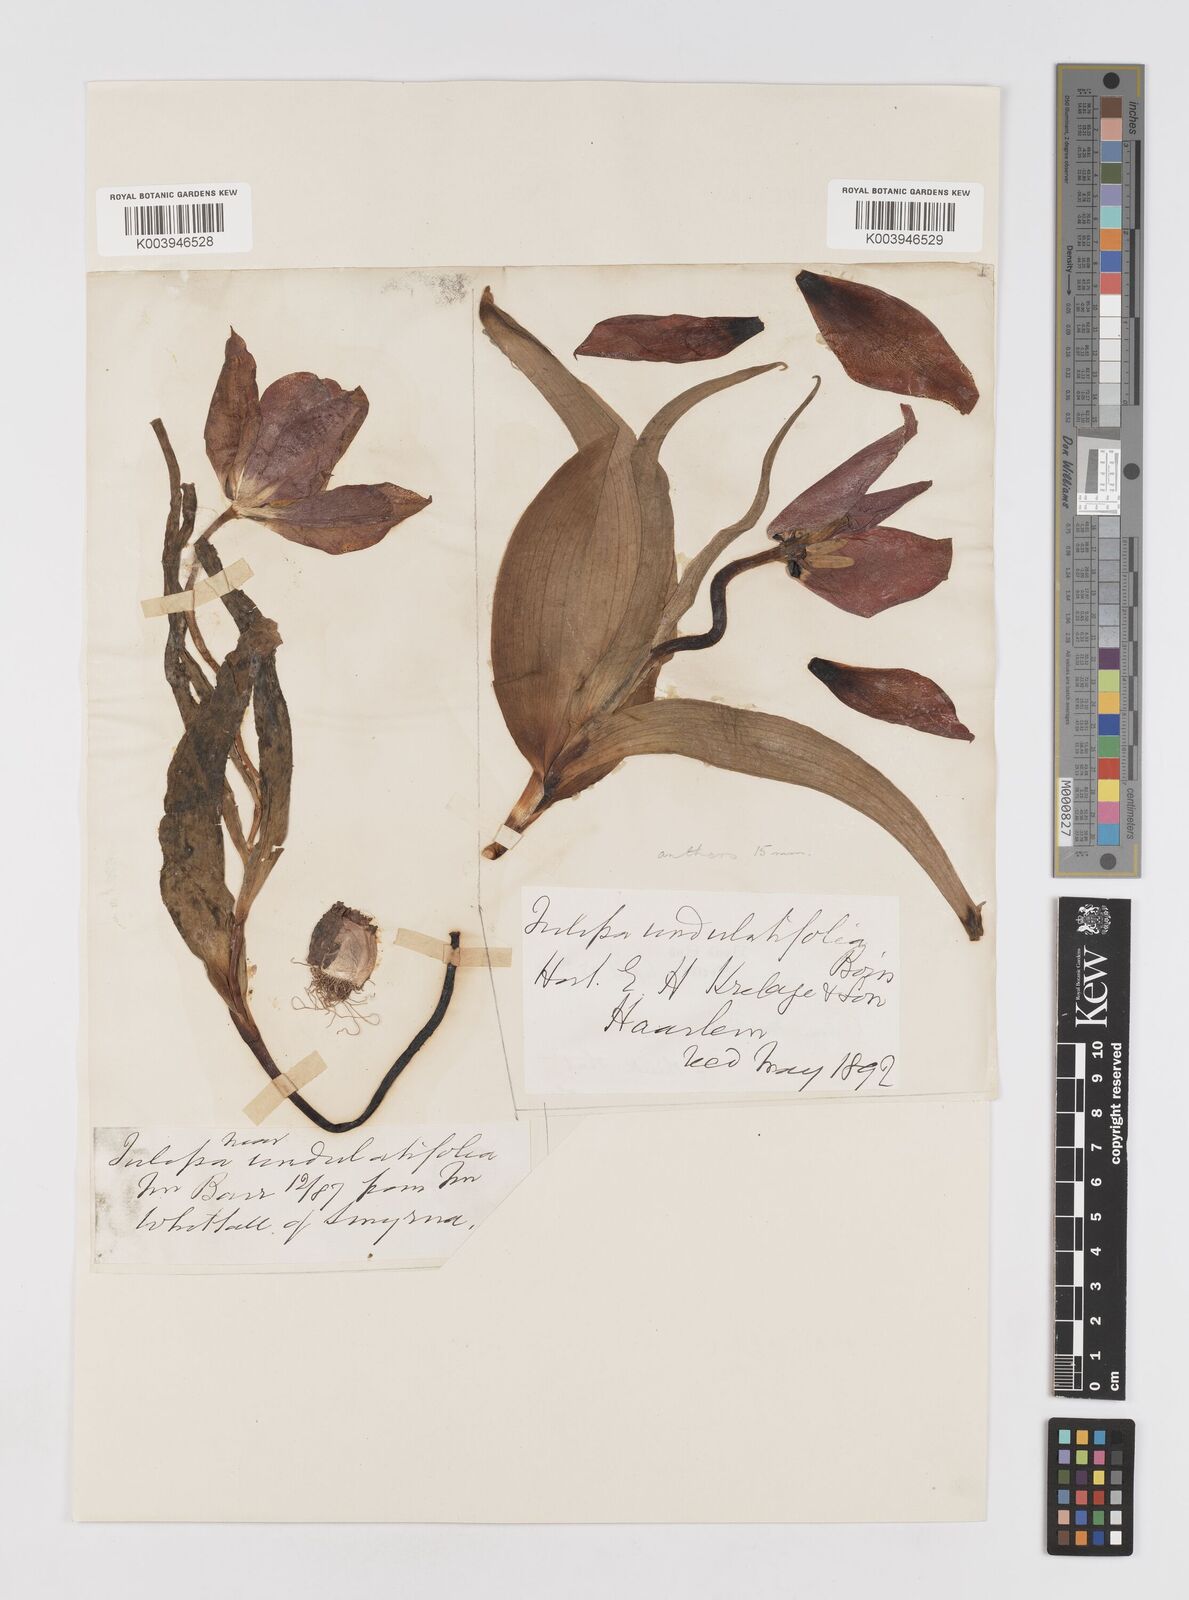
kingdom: Plantae
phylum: Tracheophyta
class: Liliopsida
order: Liliales
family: Liliaceae
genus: Tulipa
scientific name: Tulipa
